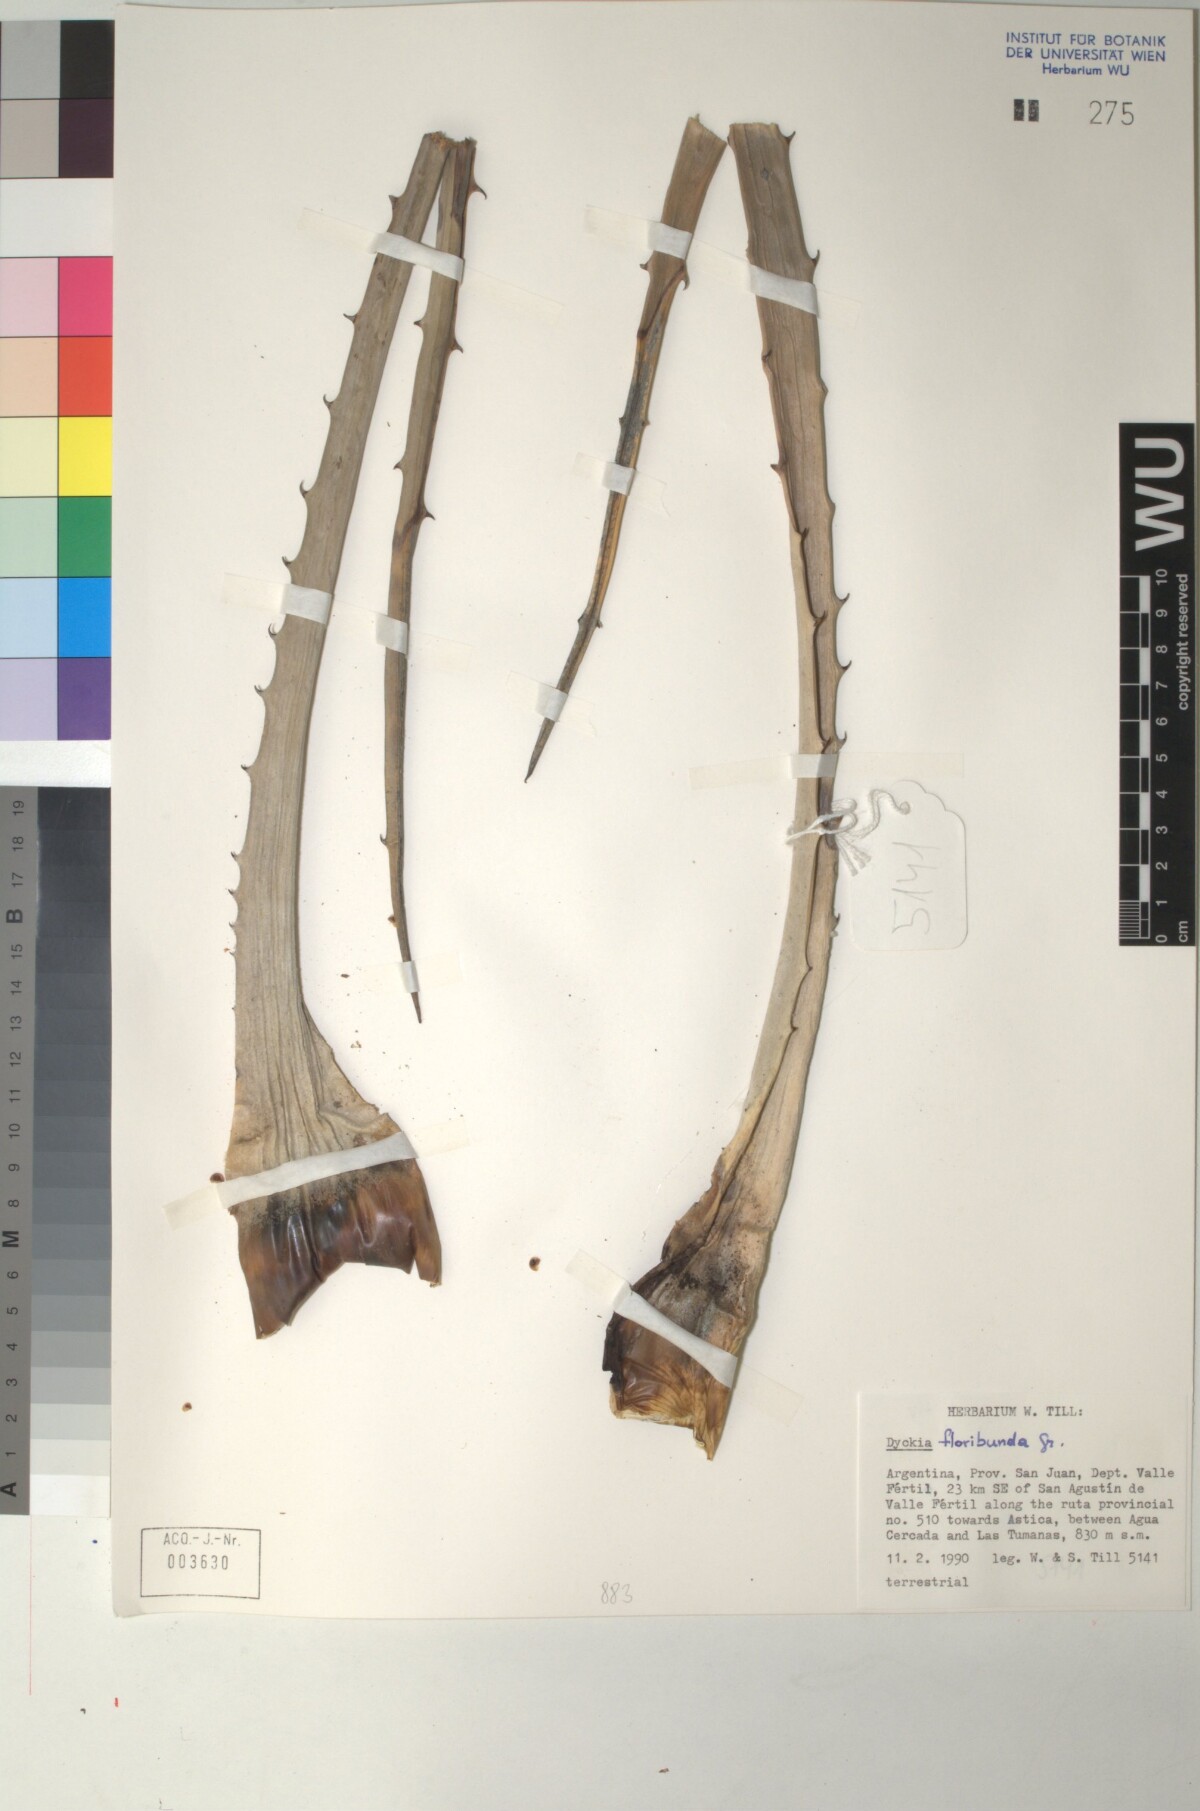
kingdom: Plantae
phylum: Tracheophyta
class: Liliopsida
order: Poales
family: Bromeliaceae
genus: Dyckia
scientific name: Dyckia floribunda
